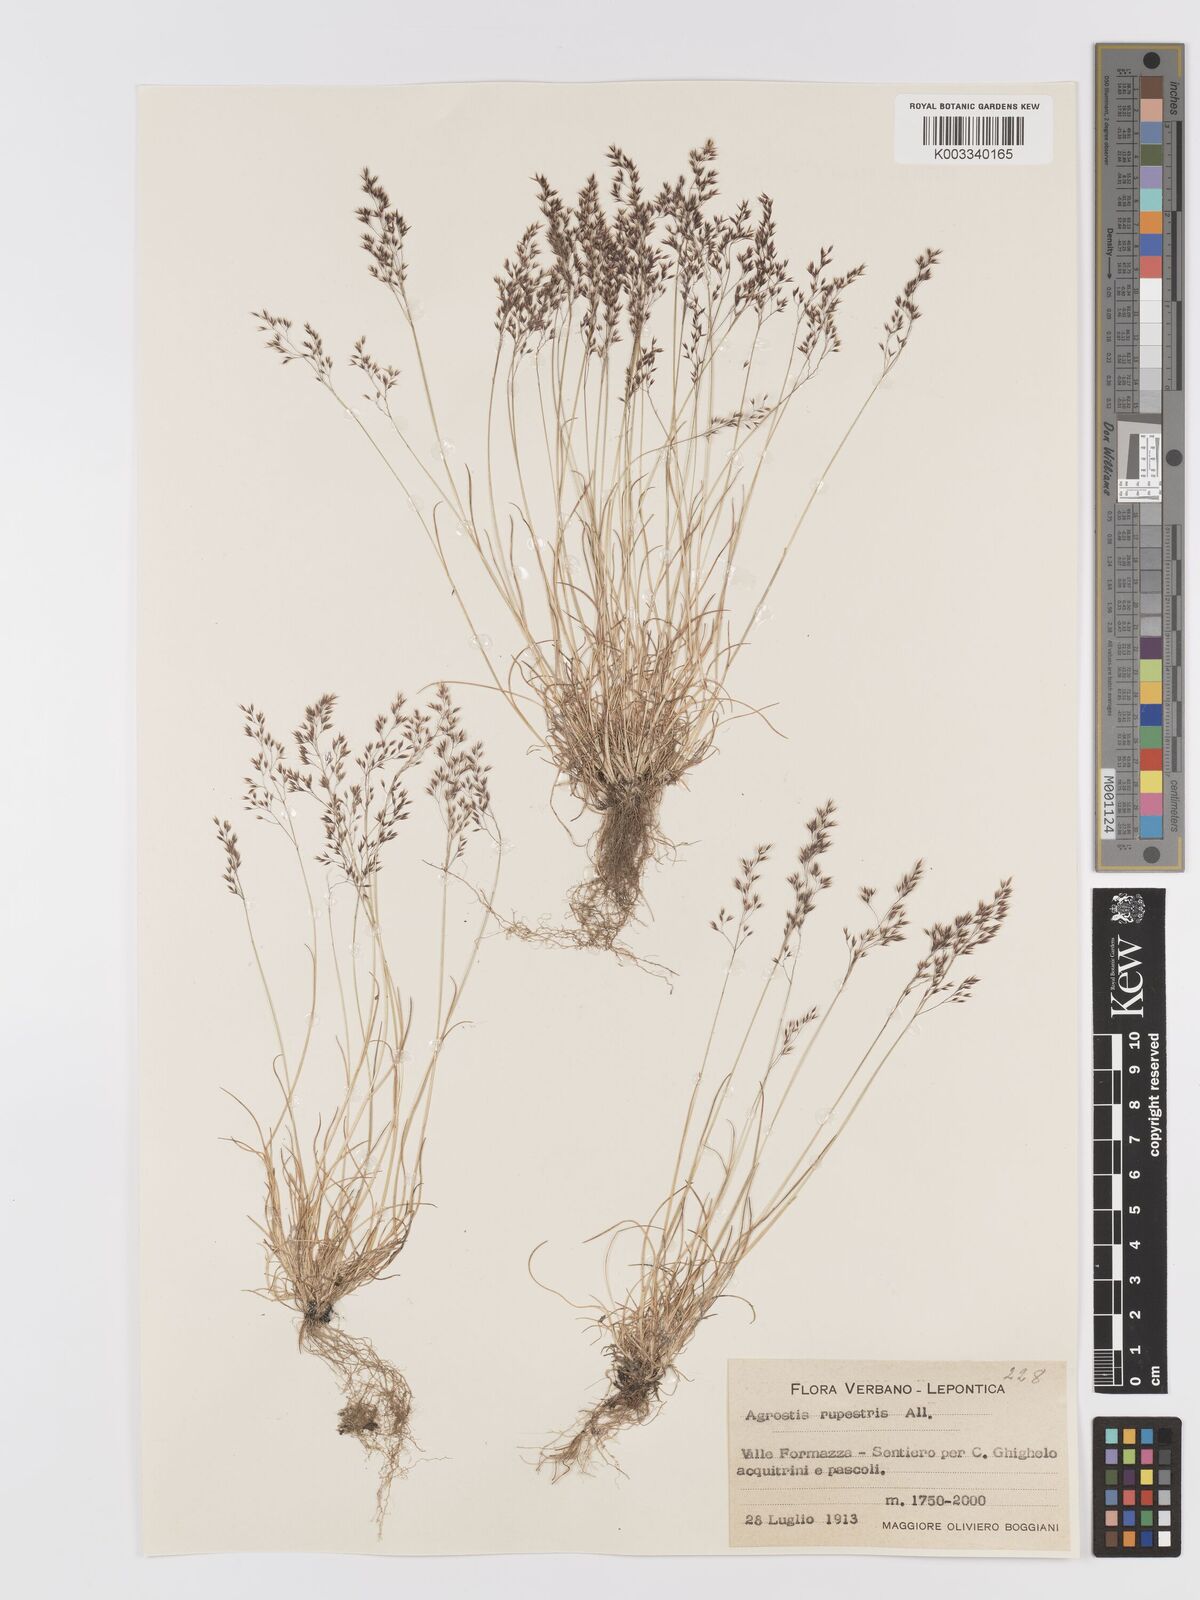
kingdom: Plantae
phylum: Tracheophyta
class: Liliopsida
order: Poales
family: Poaceae
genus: Agrostis
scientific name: Agrostis rupestris
